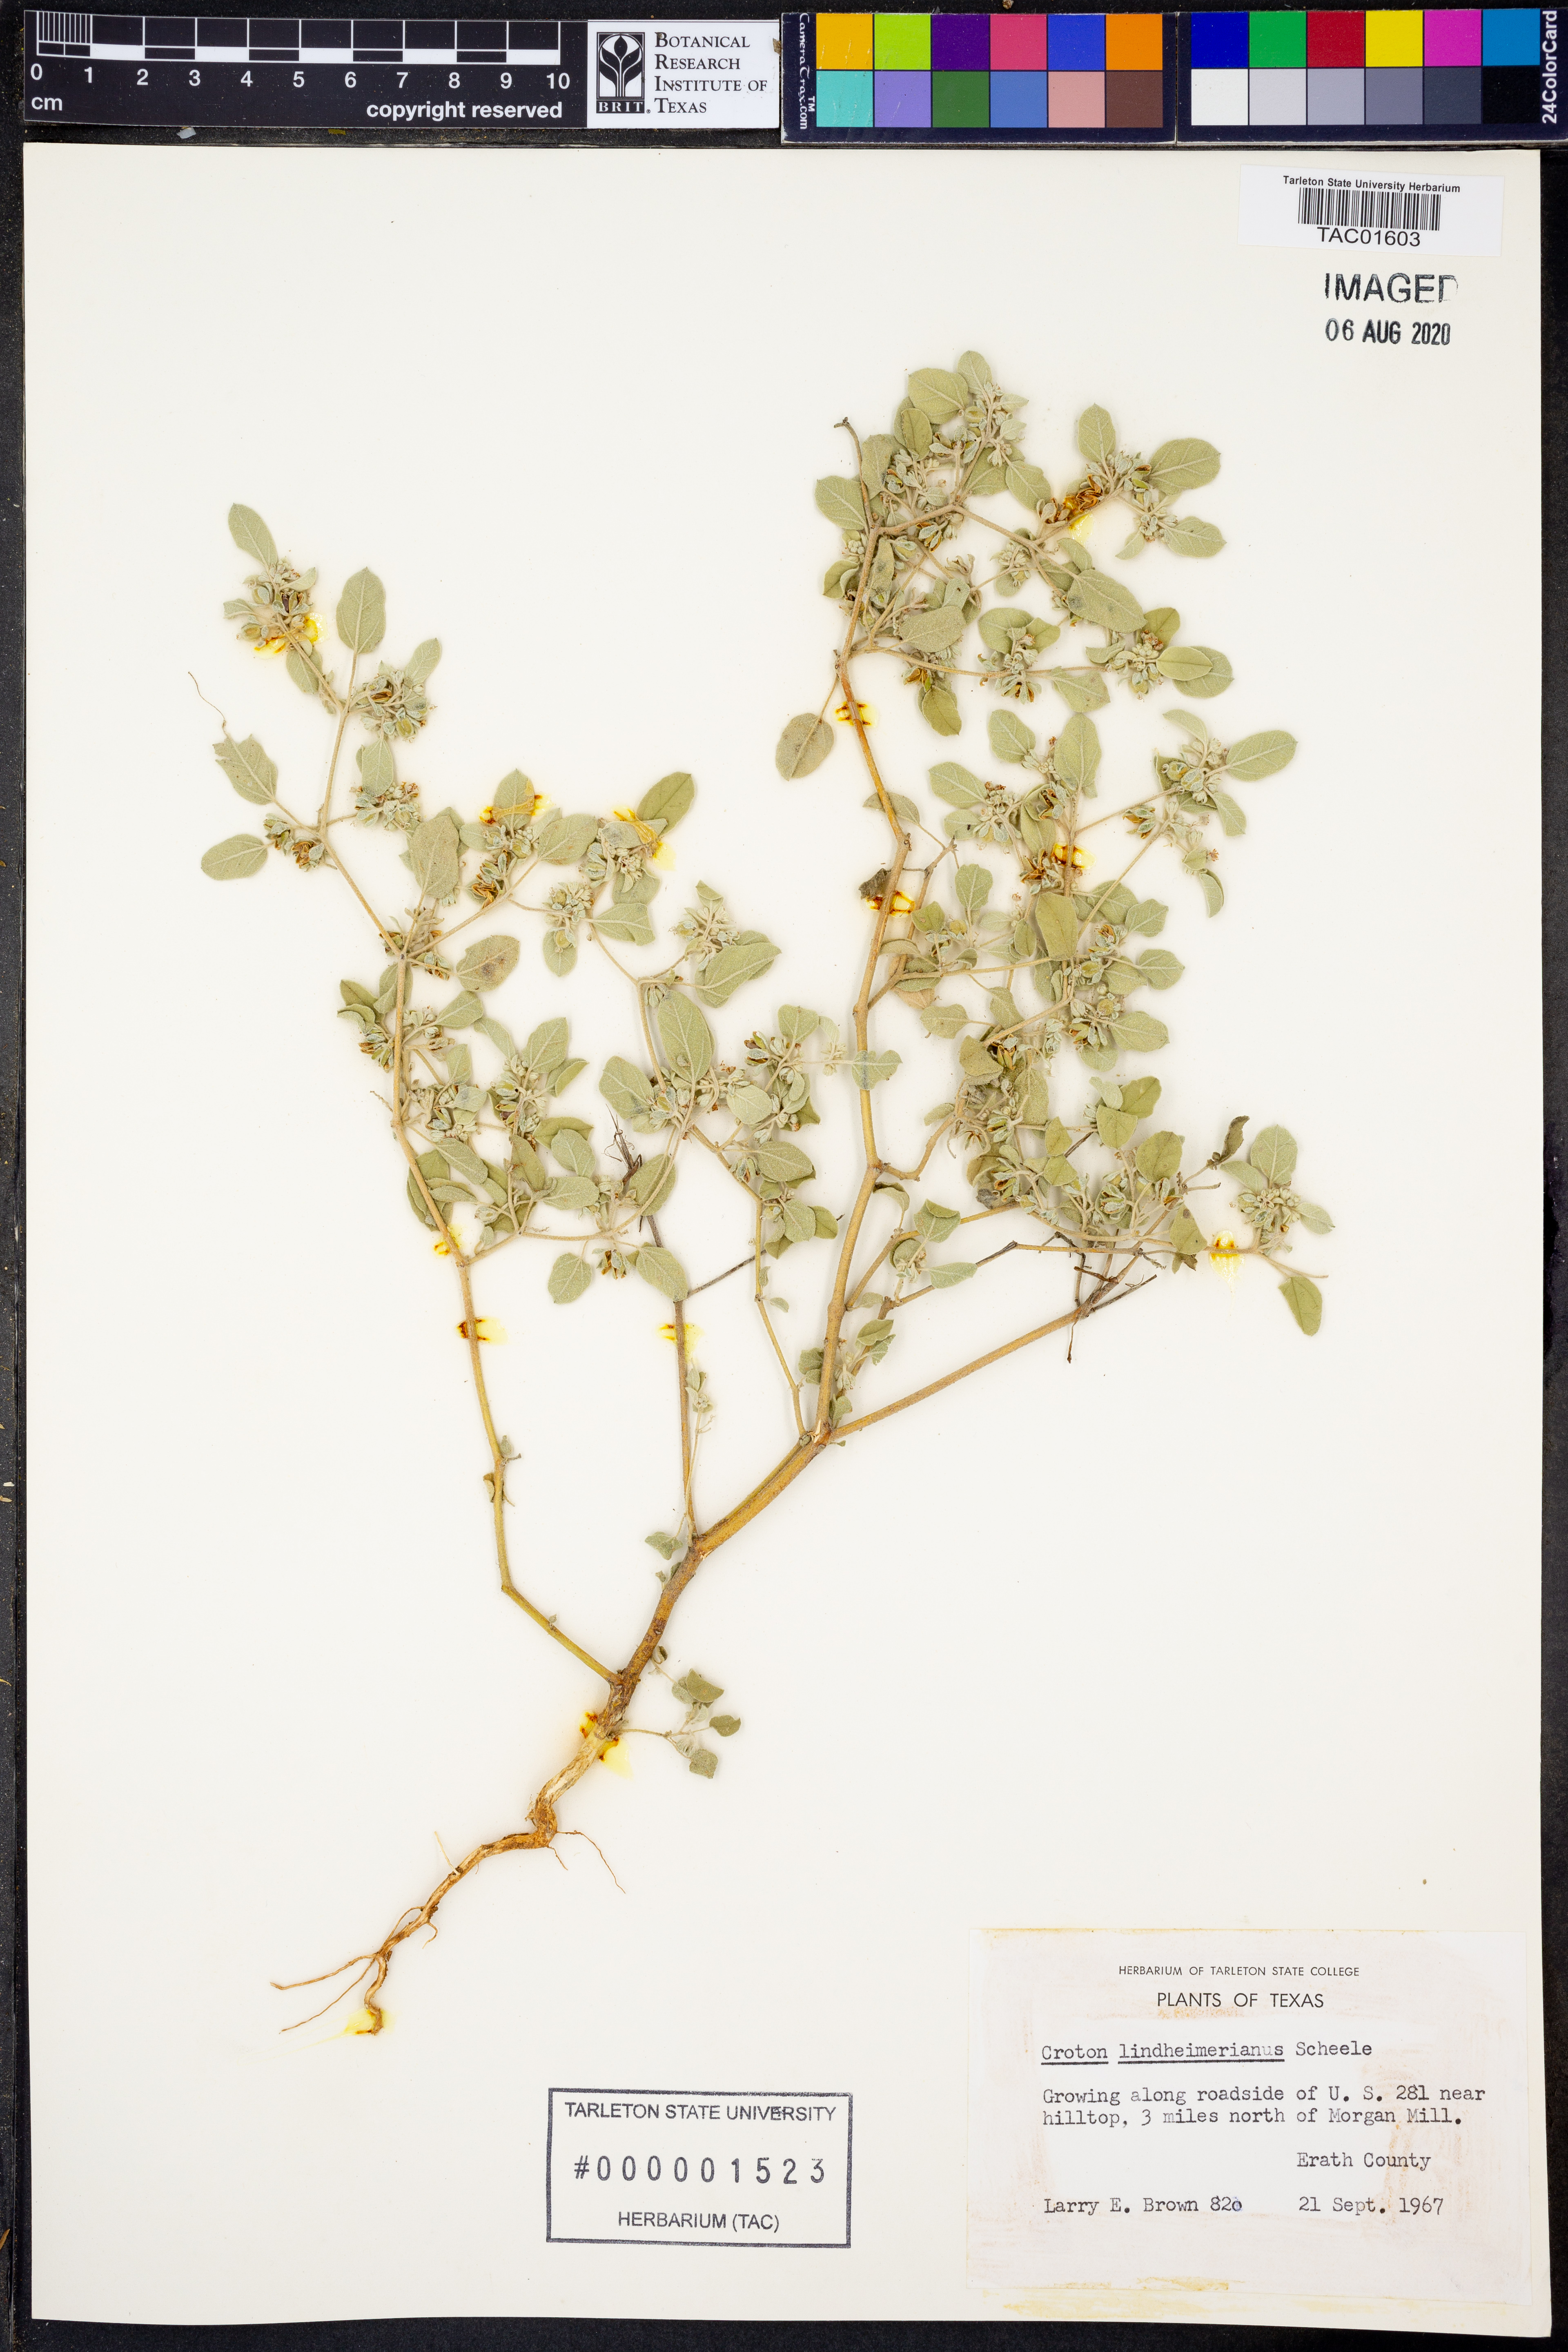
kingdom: Plantae
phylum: Tracheophyta
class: Magnoliopsida
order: Malpighiales
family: Euphorbiaceae
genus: Croton
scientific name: Croton lindheimerianus
